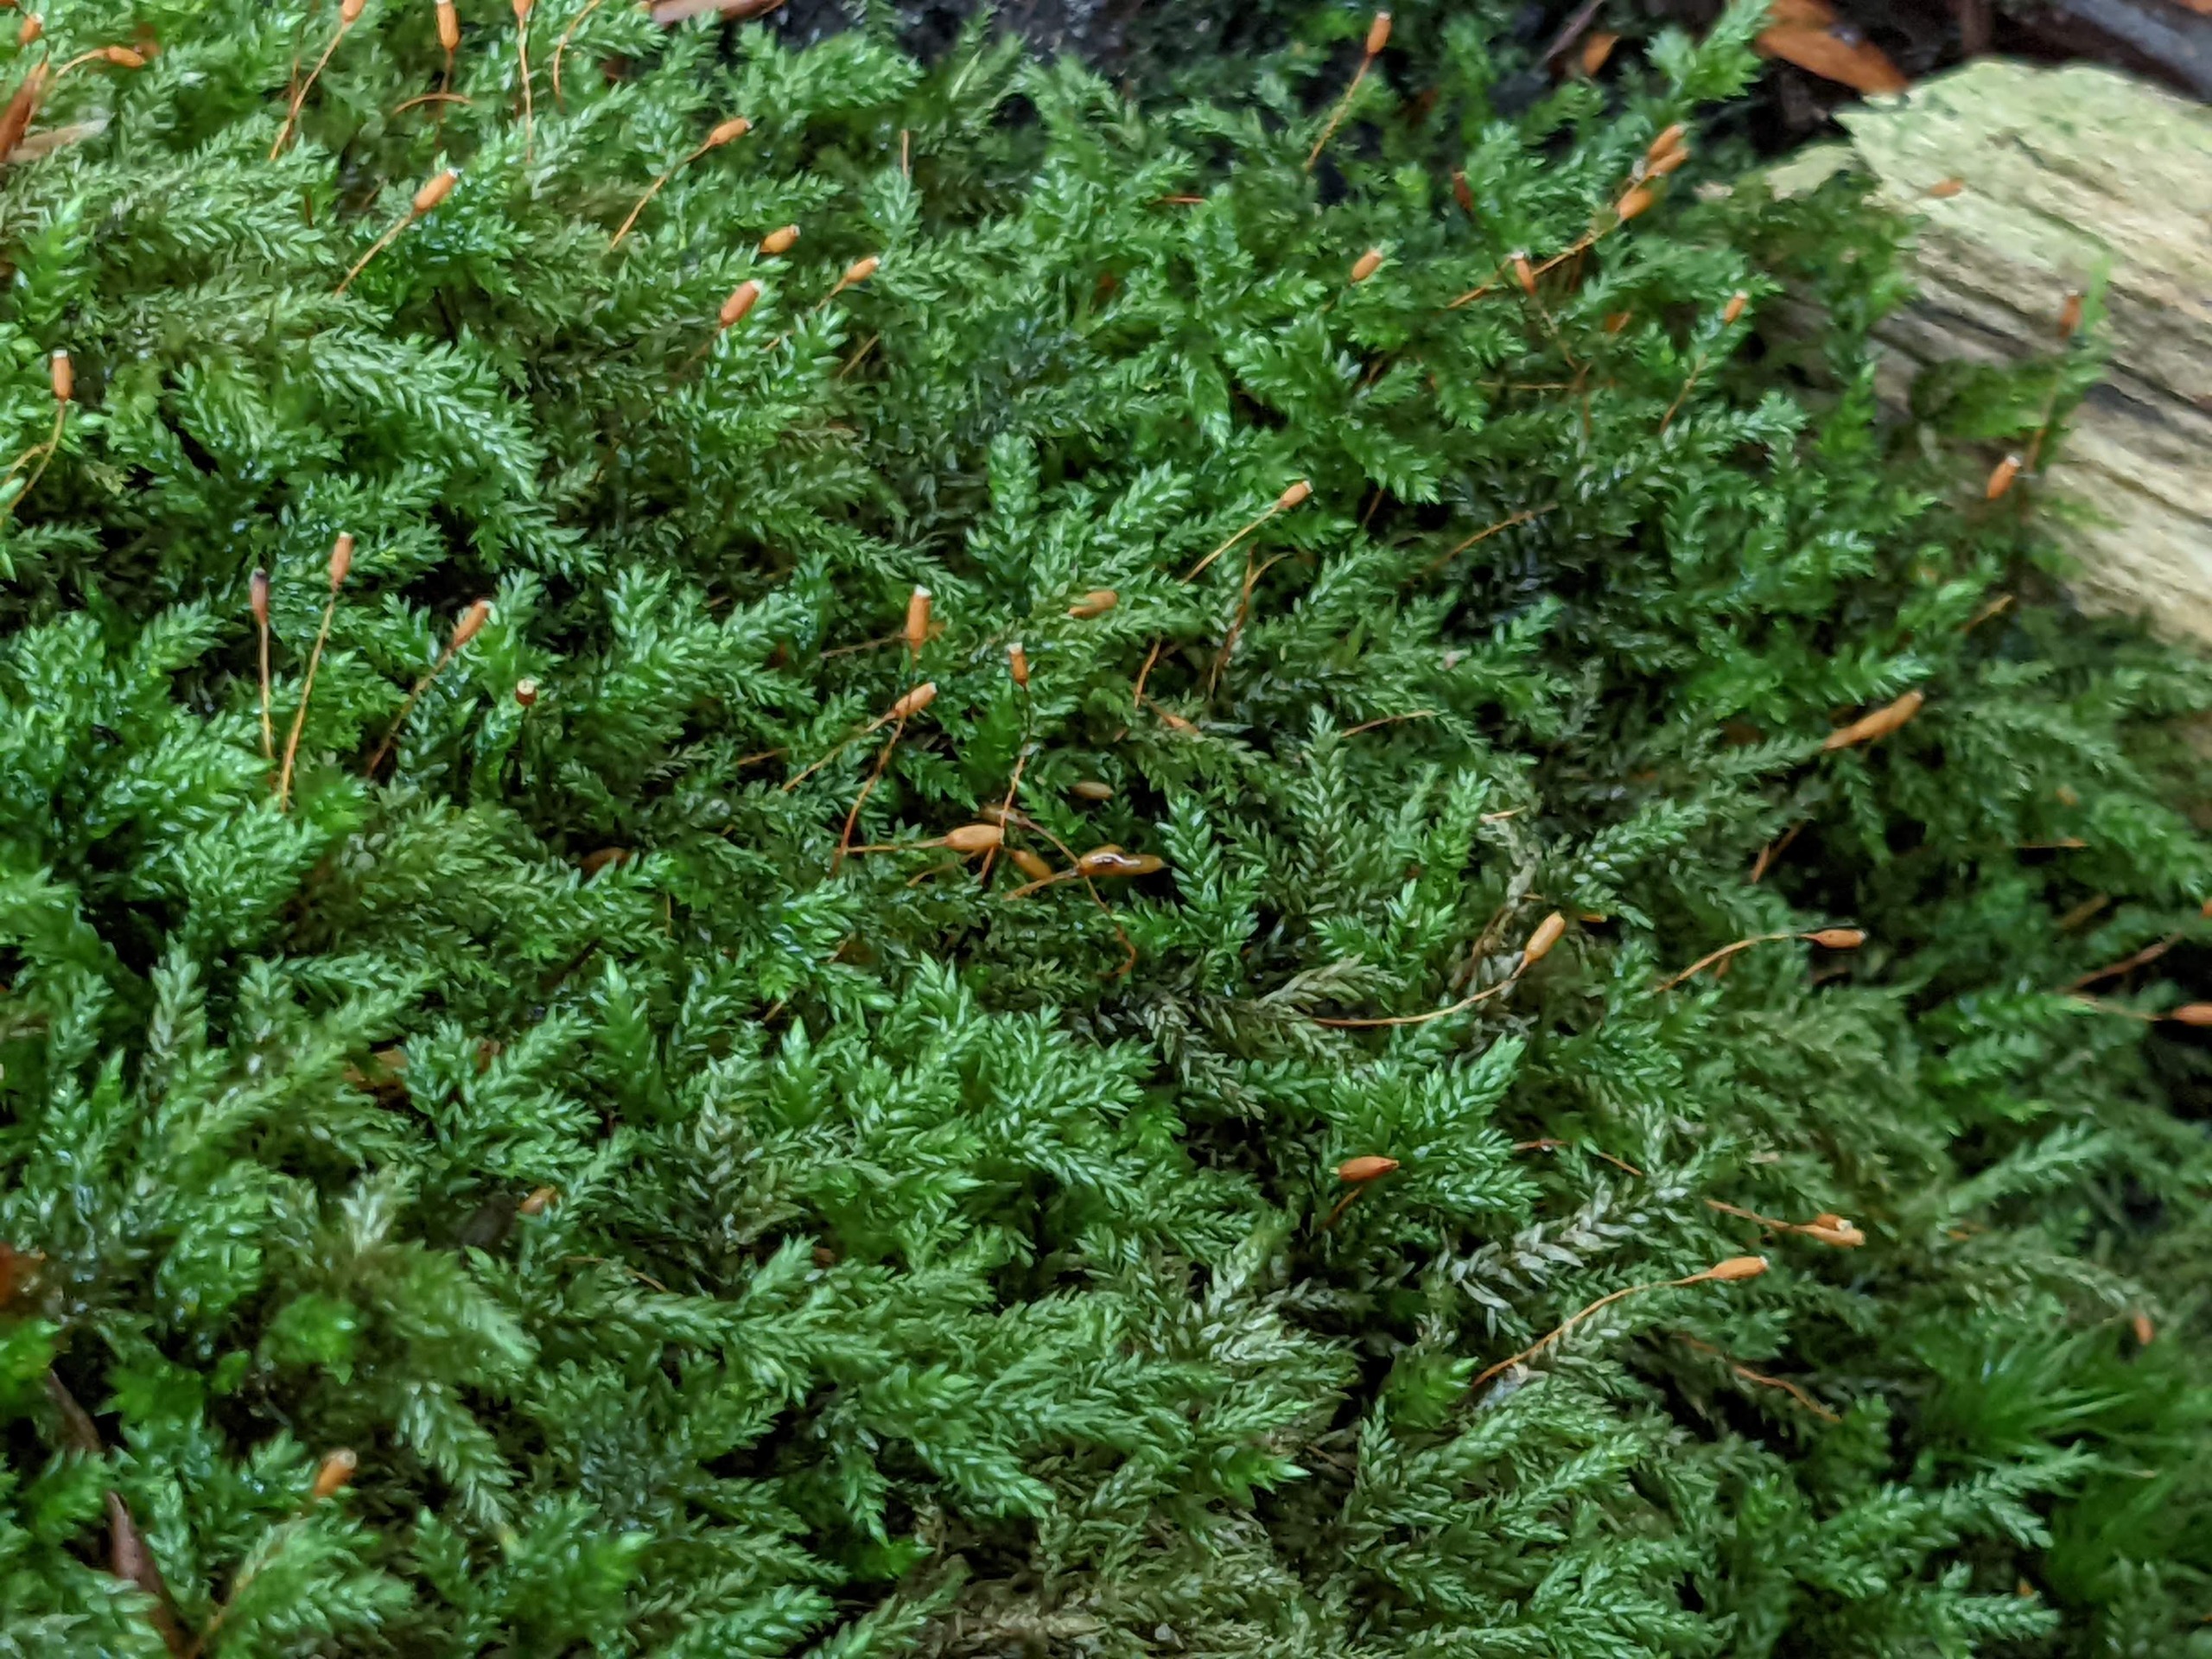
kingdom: Plantae
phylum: Bryophyta
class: Bryopsida
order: Hypnales
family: Lembophyllaceae
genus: Isothecium
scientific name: Isothecium alopecuroides
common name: Stor stammemos
